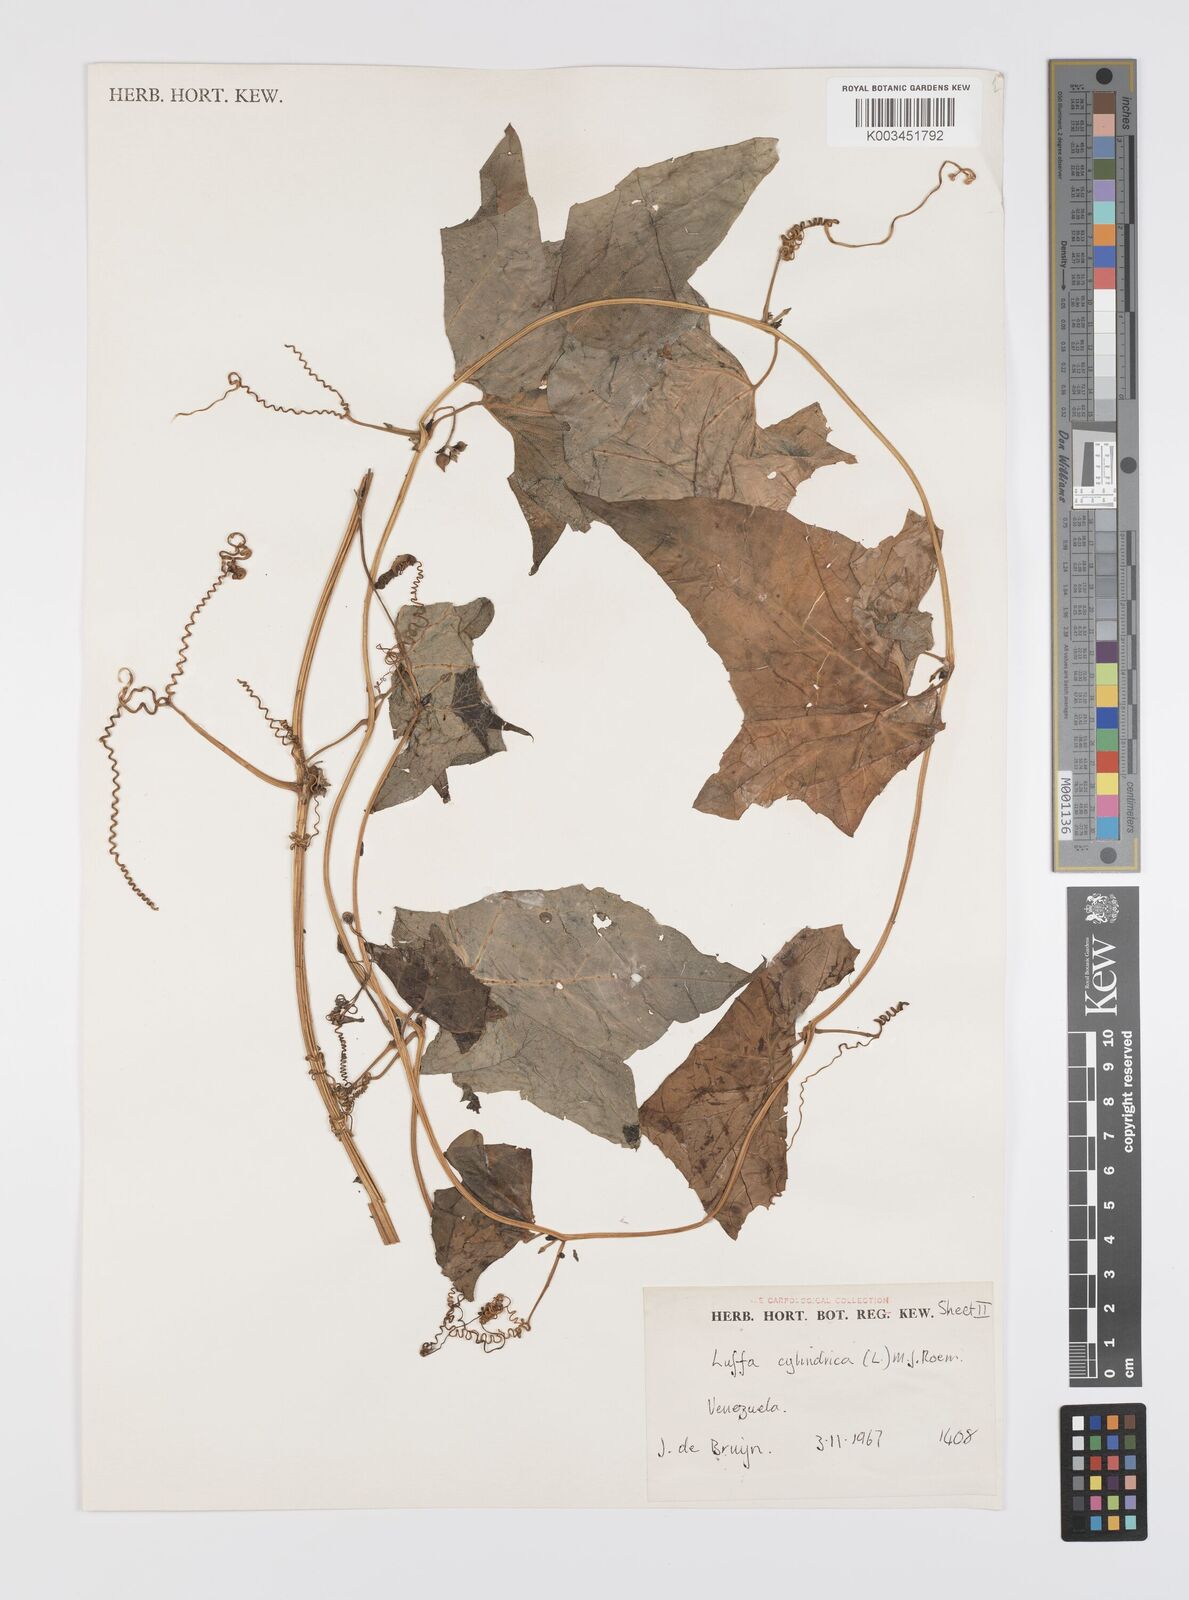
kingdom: Plantae
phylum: Tracheophyta
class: Magnoliopsida
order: Cucurbitales
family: Cucurbitaceae
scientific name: Cucurbitaceae
